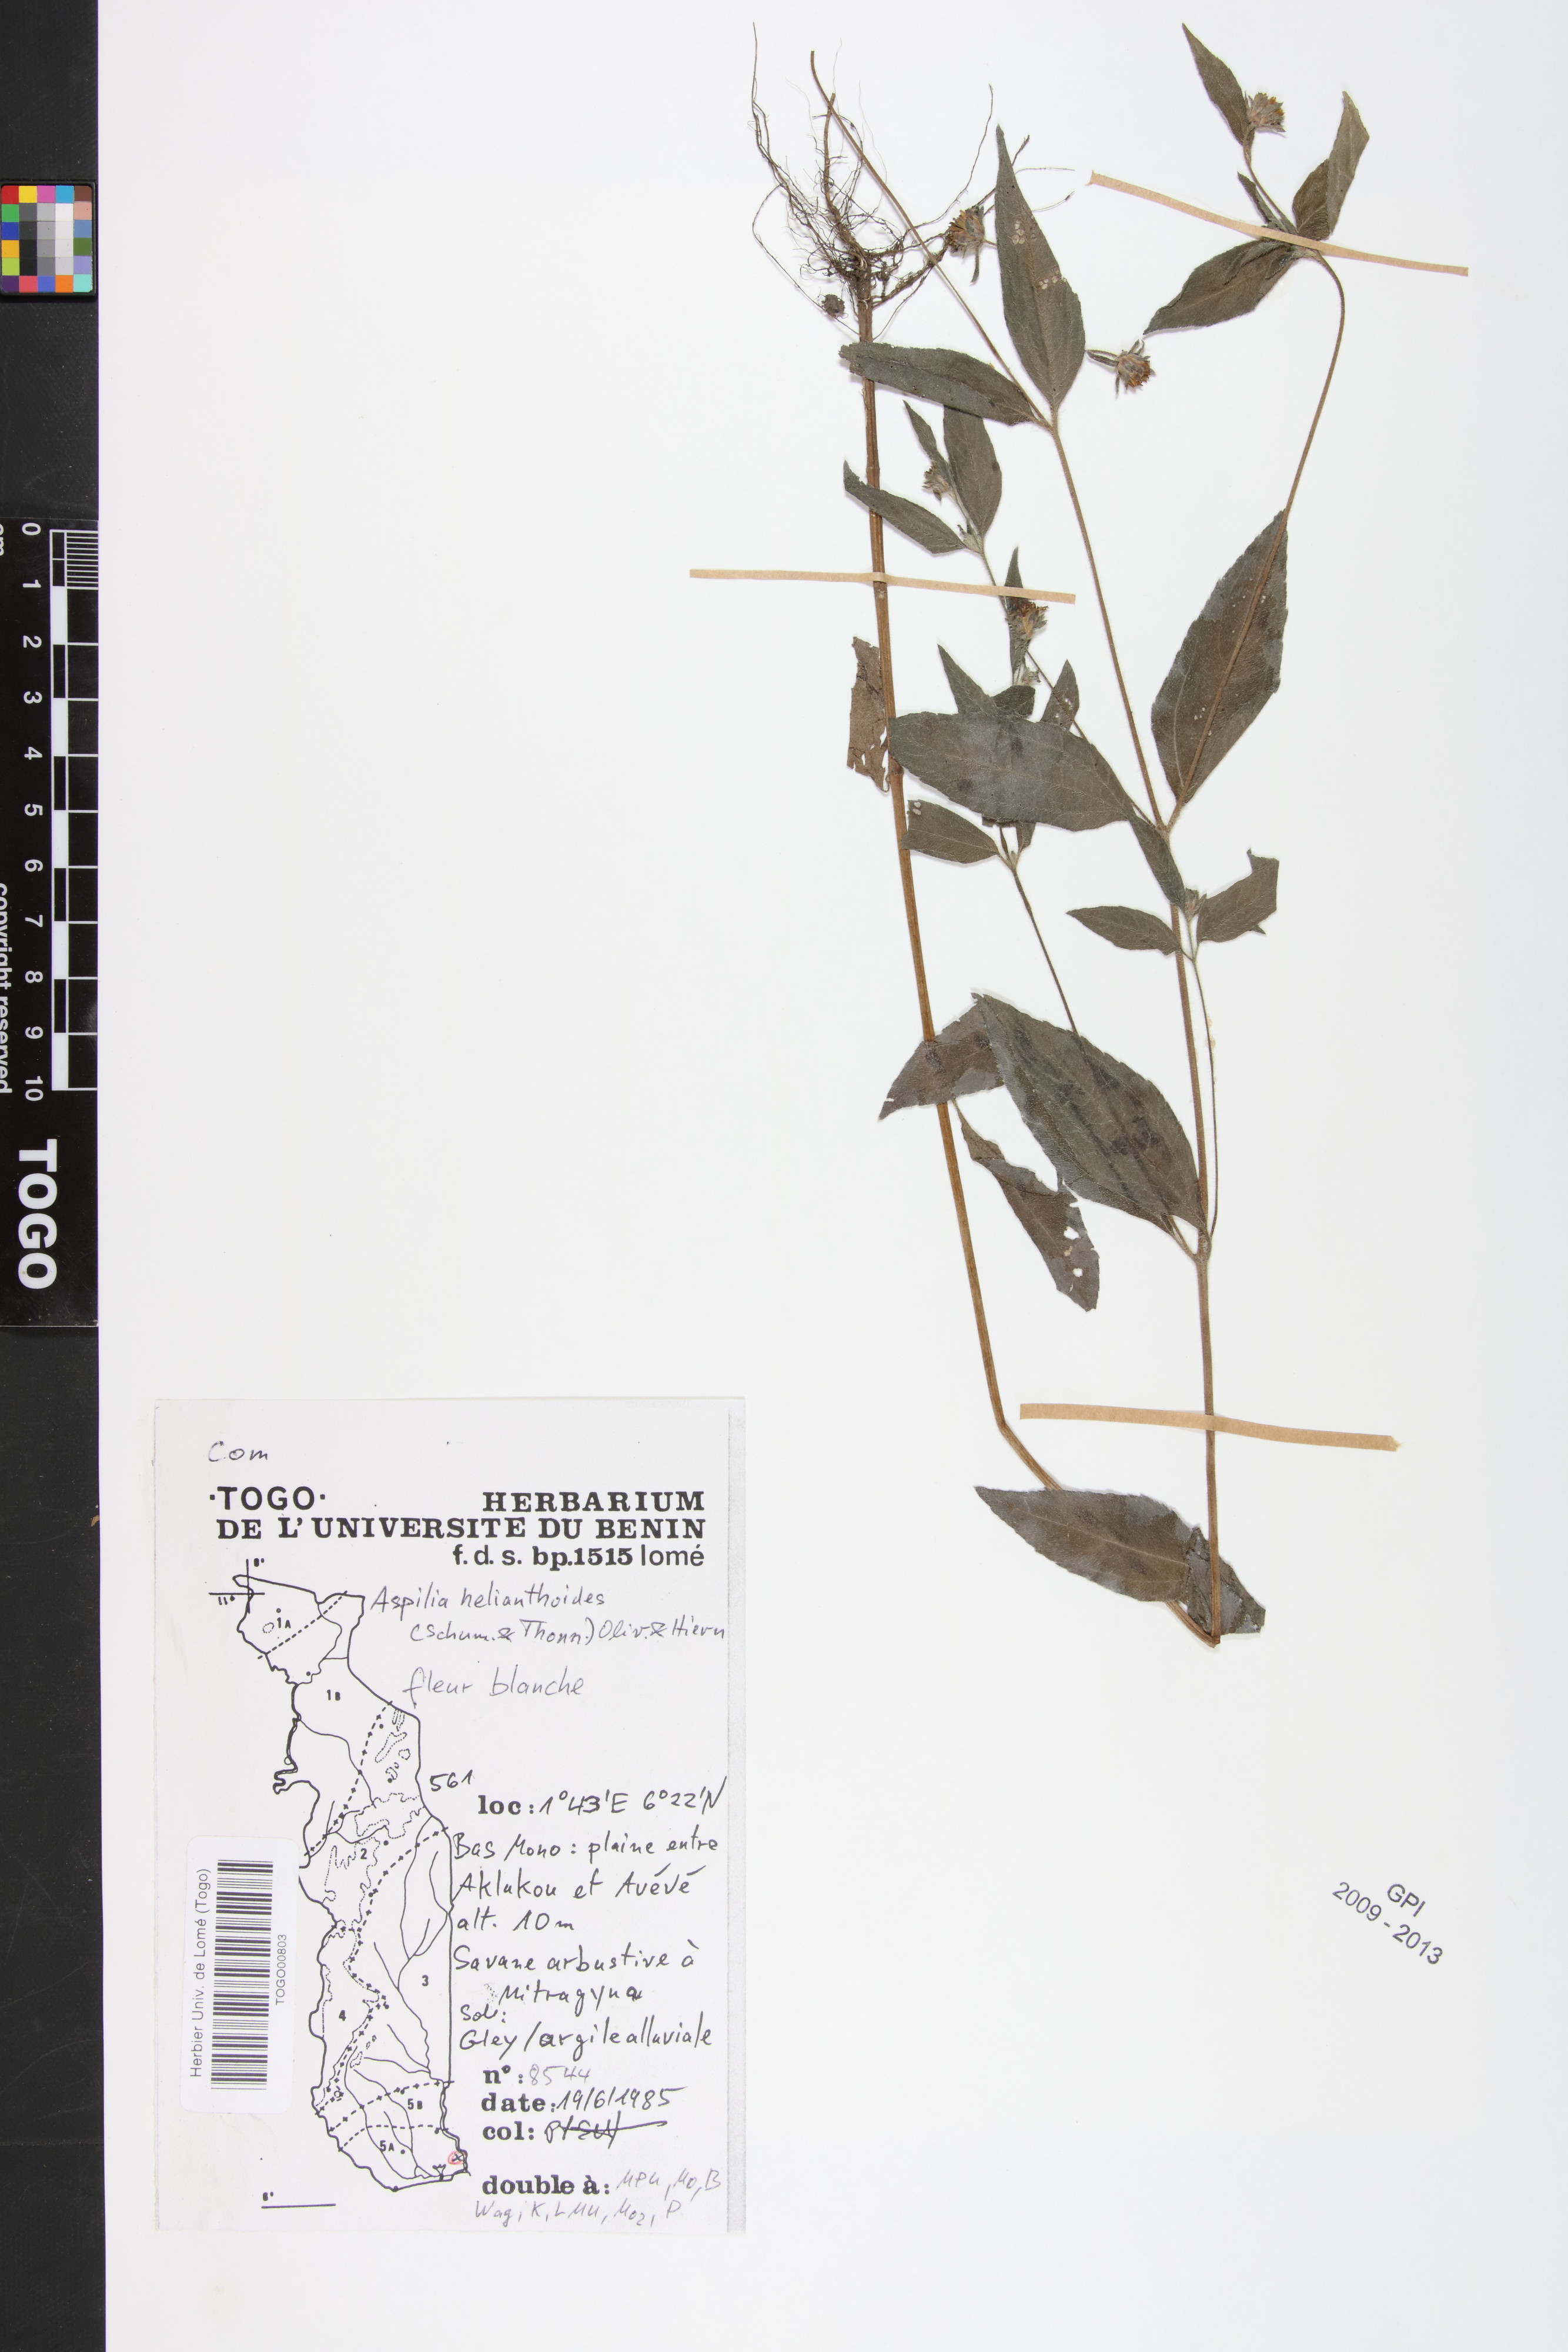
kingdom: Plantae
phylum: Tracheophyta
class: Magnoliopsida
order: Asterales
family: Asteraceae
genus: Aspilia
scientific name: Aspilia helianthoides
